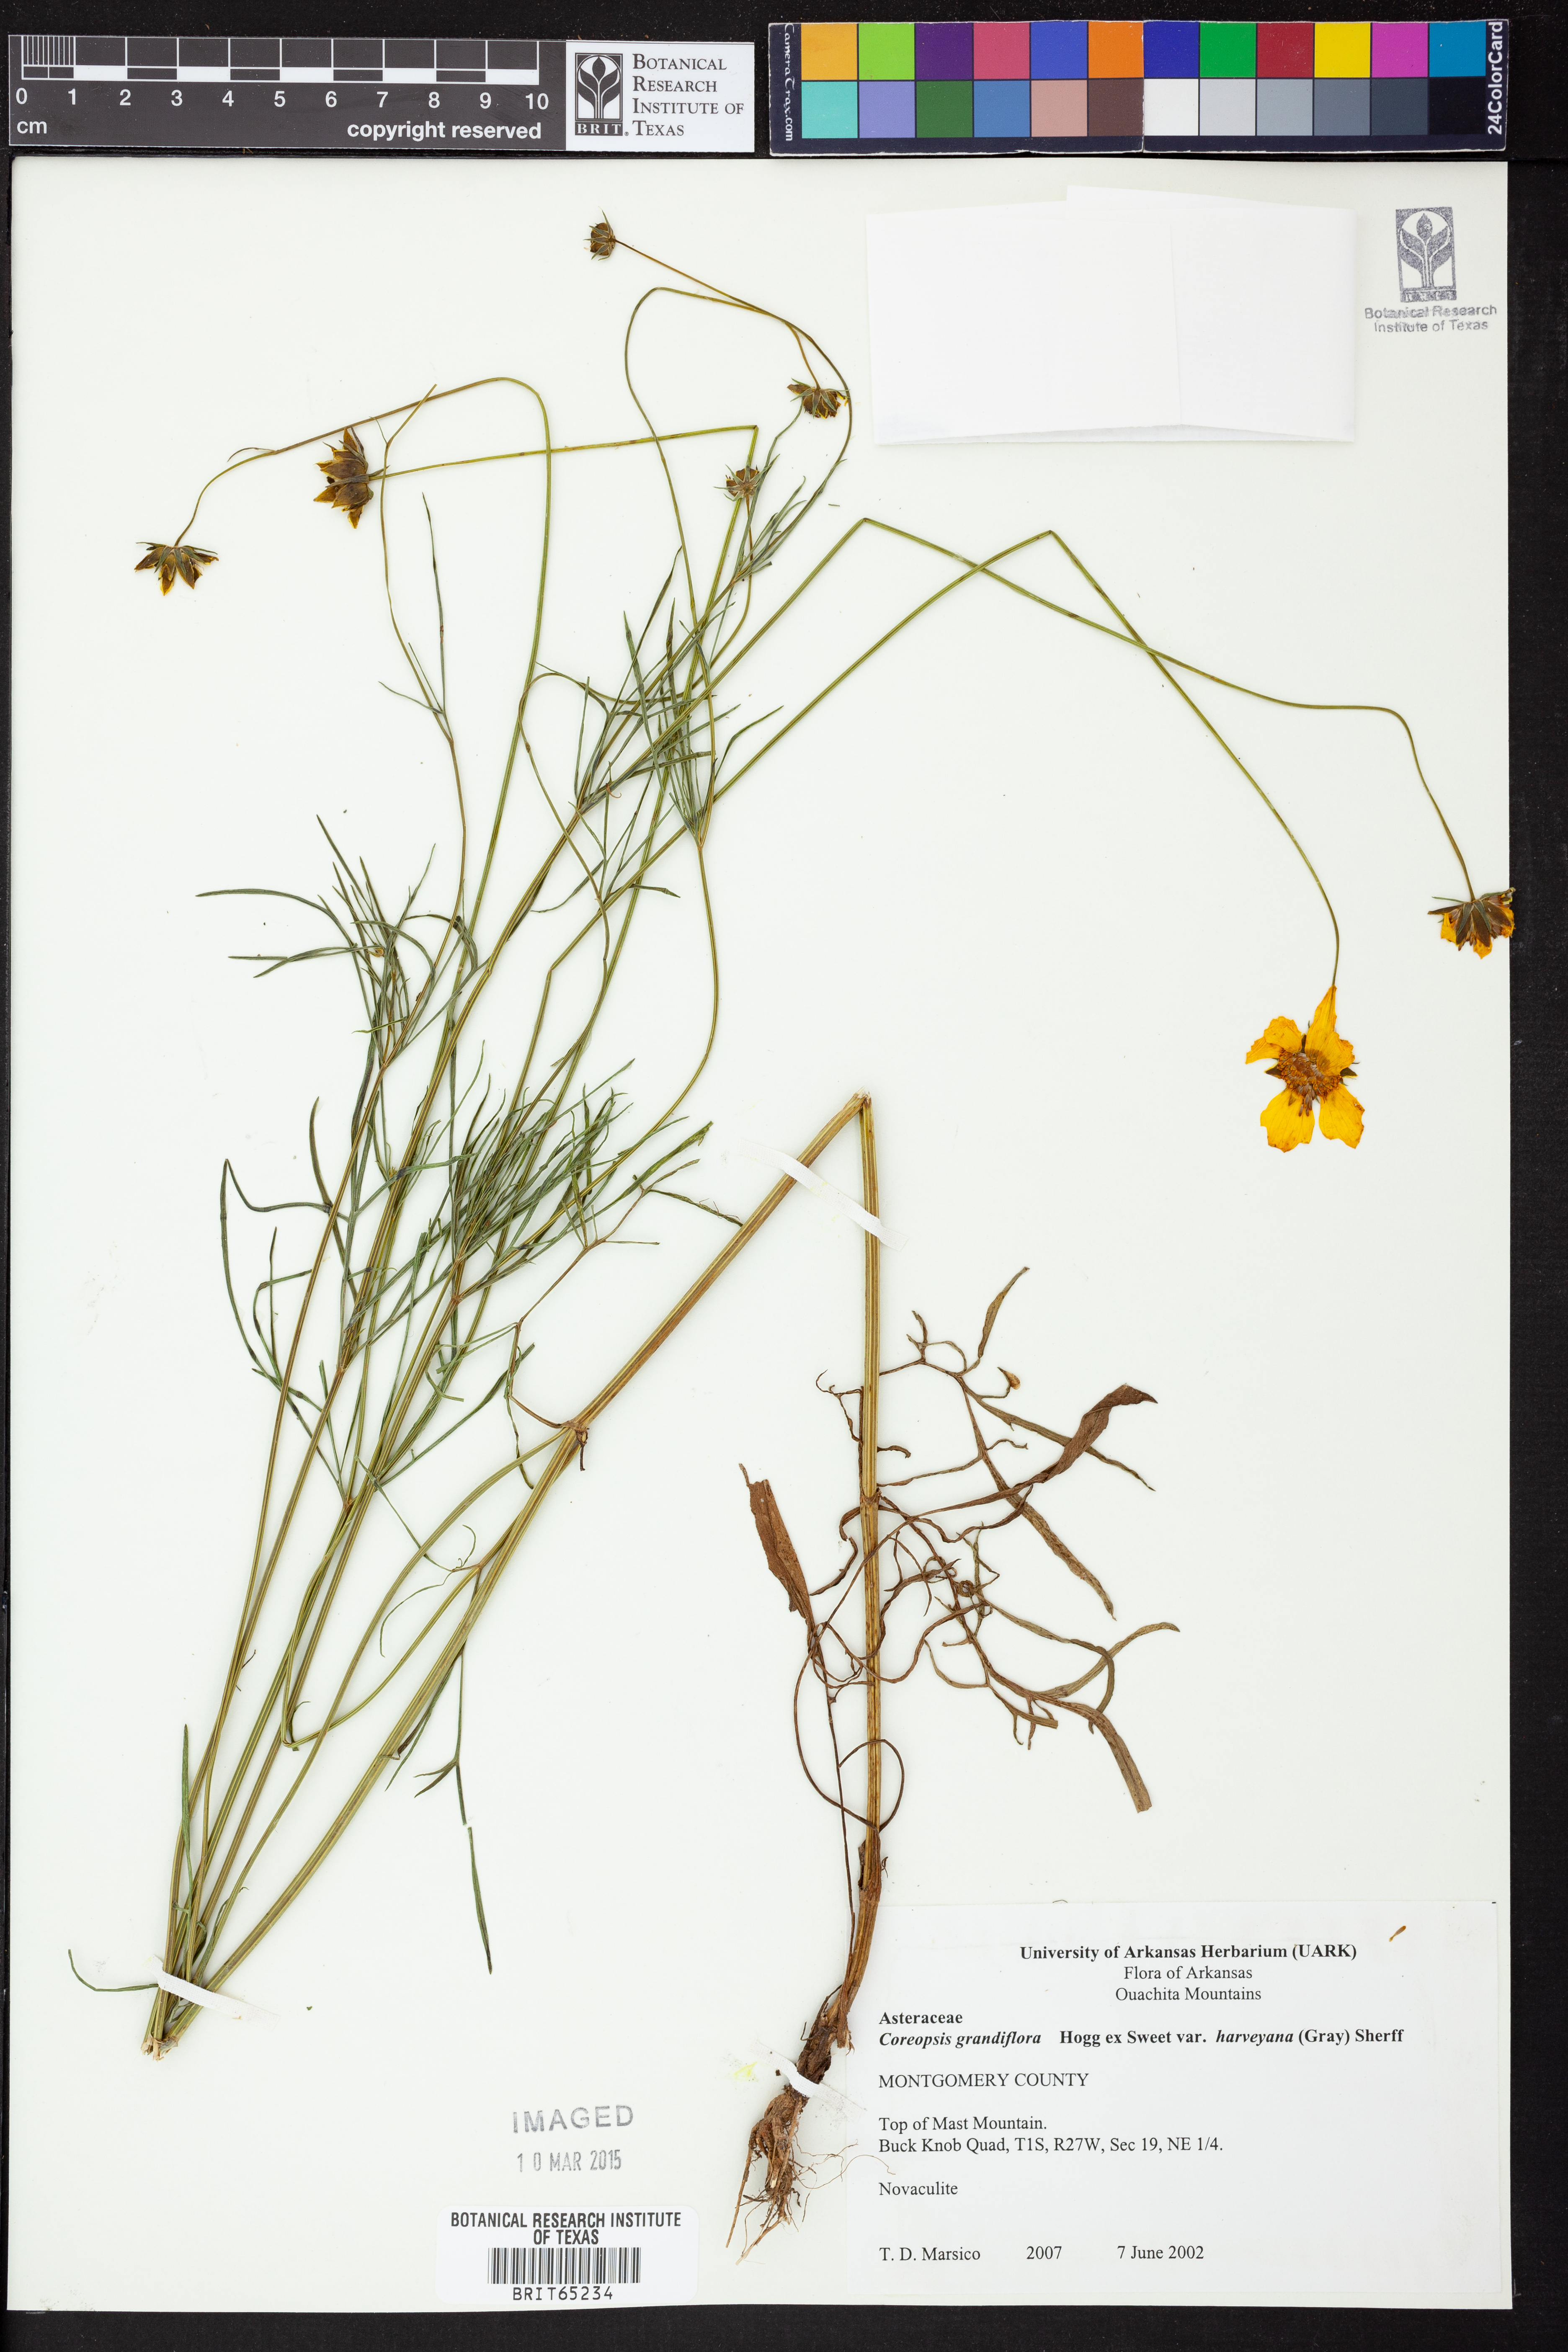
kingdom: Plantae
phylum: Tracheophyta
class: Magnoliopsida
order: Asterales
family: Asteraceae
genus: Coreopsis
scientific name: Coreopsis grandiflora
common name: Large-flowered tickseed
